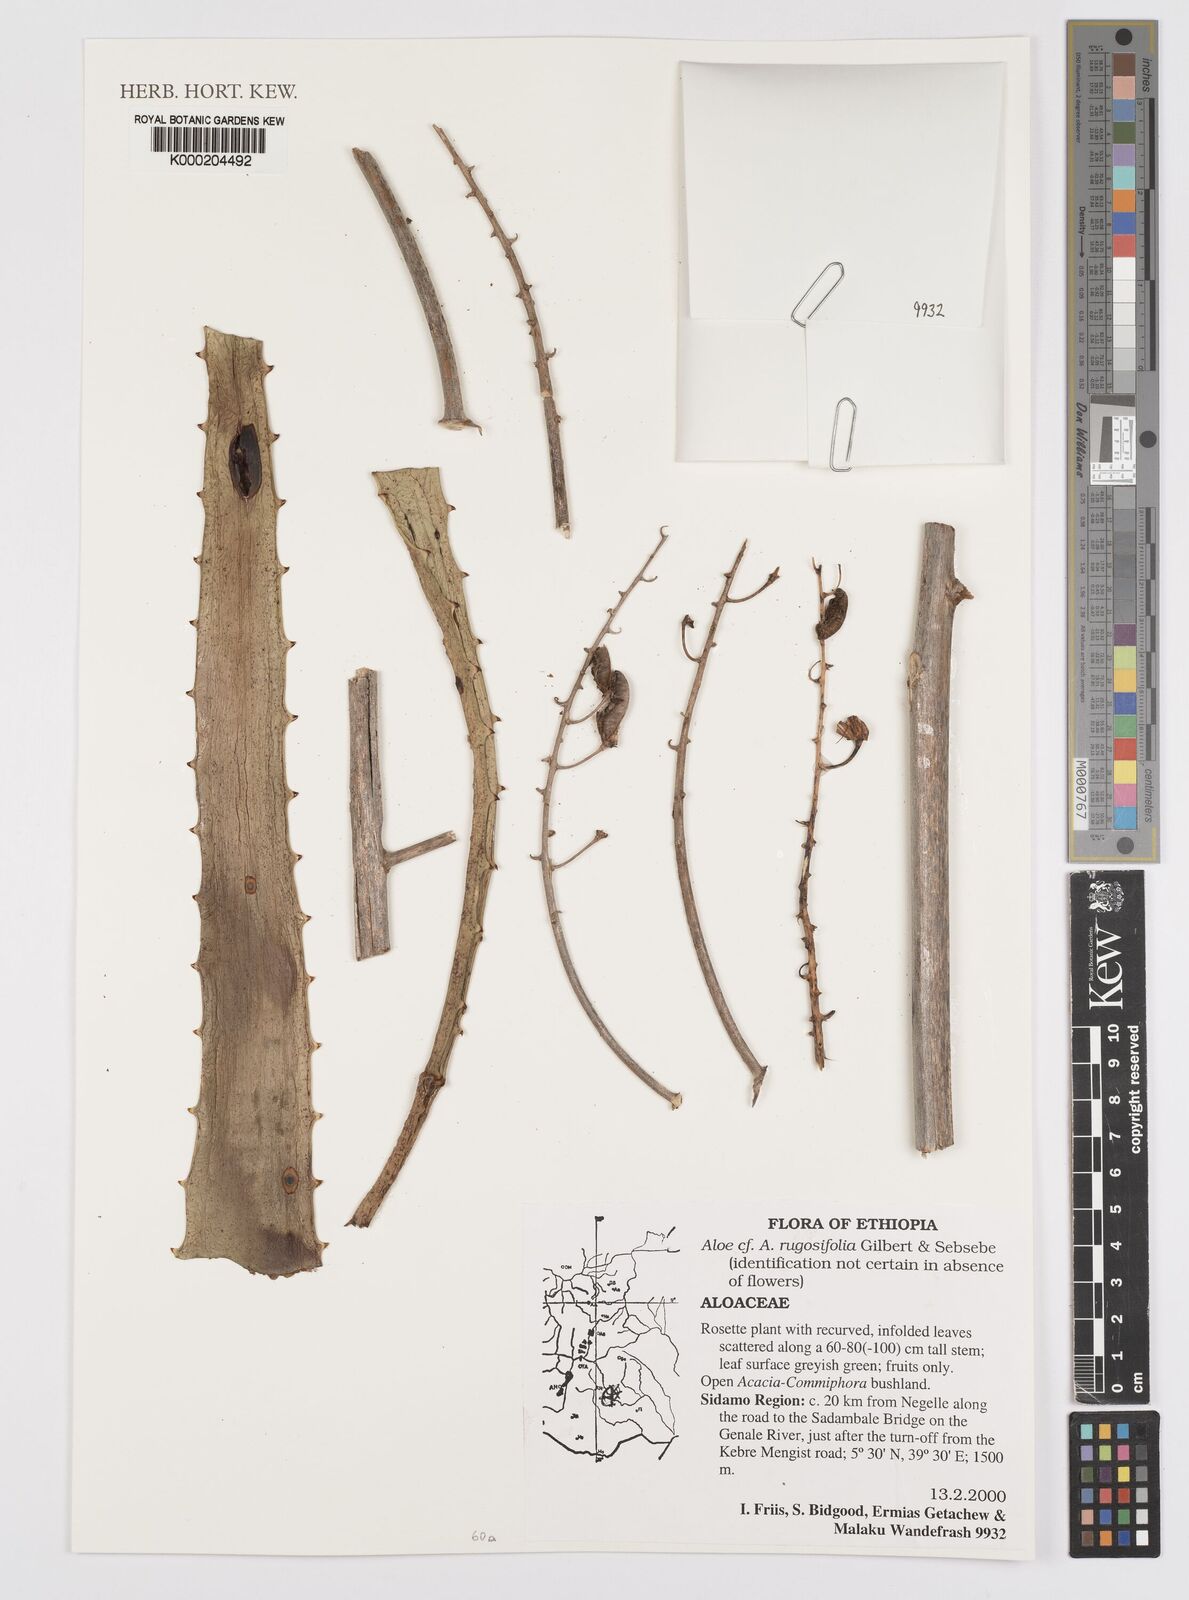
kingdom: Plantae
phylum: Tracheophyta
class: Liliopsida
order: Asparagales
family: Asphodelaceae
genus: Aloe
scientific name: Aloe rugosifolia
